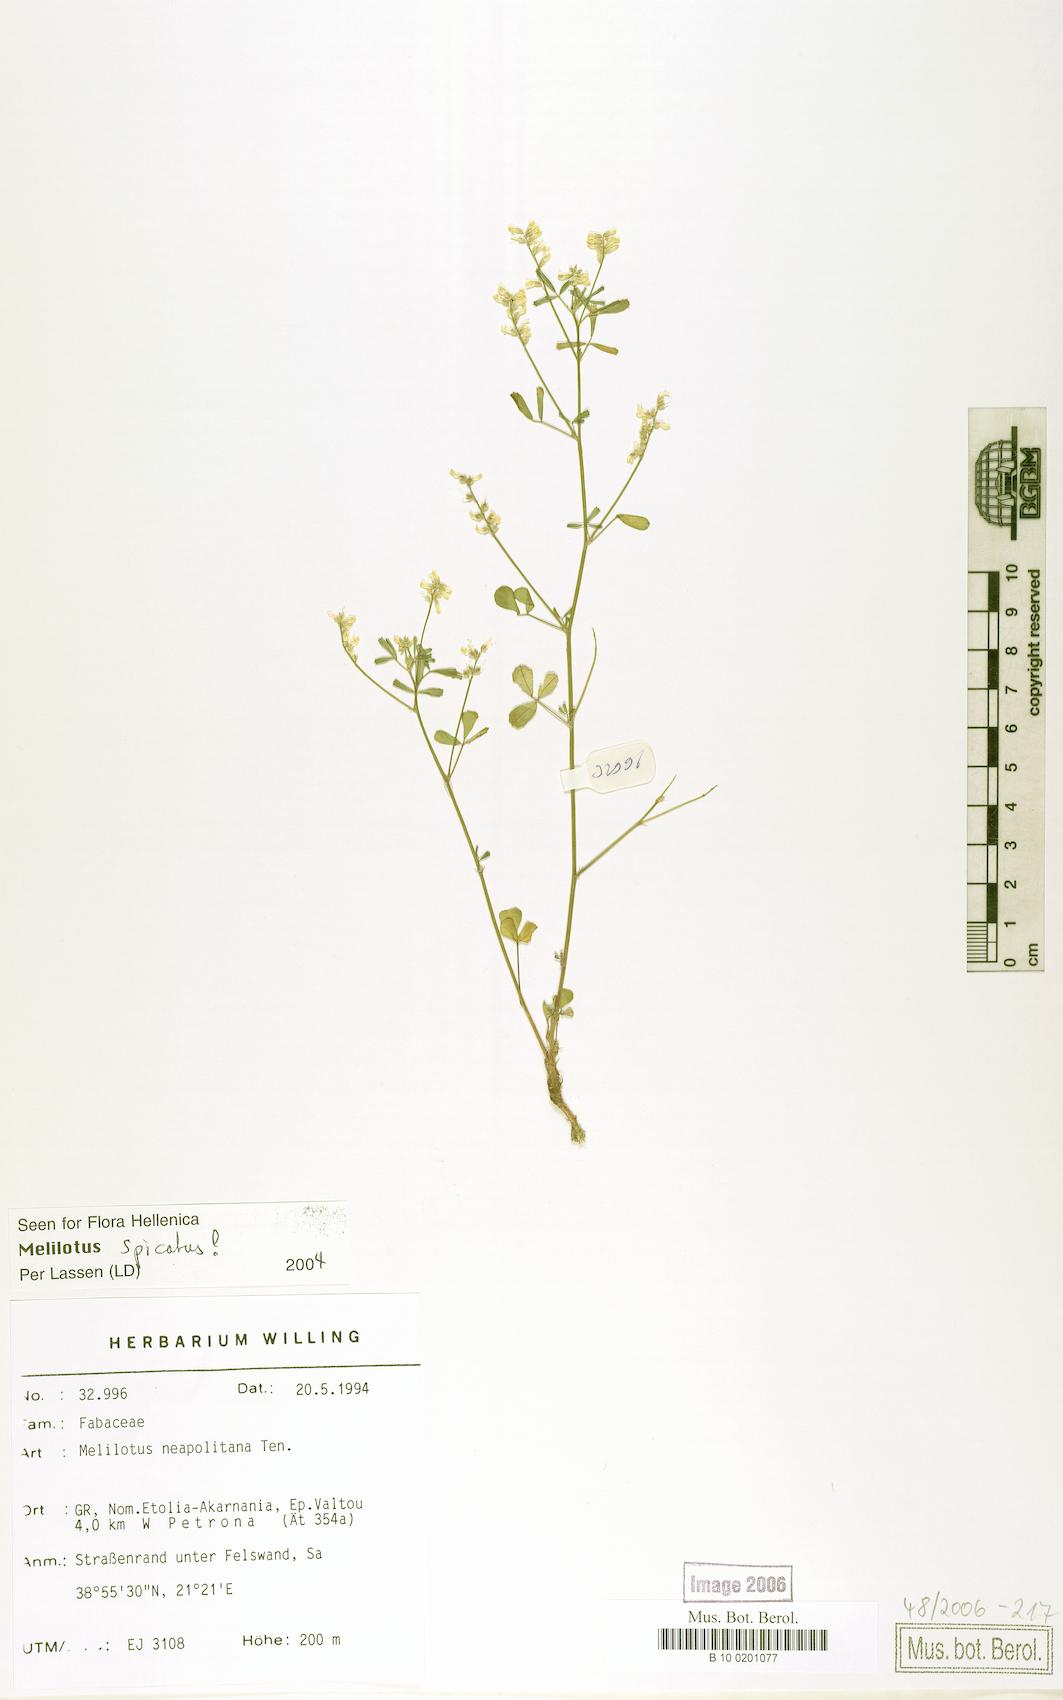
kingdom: Plantae
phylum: Tracheophyta
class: Magnoliopsida
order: Fabales
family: Fabaceae
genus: Melilotus
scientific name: Melilotus neapolitanus
